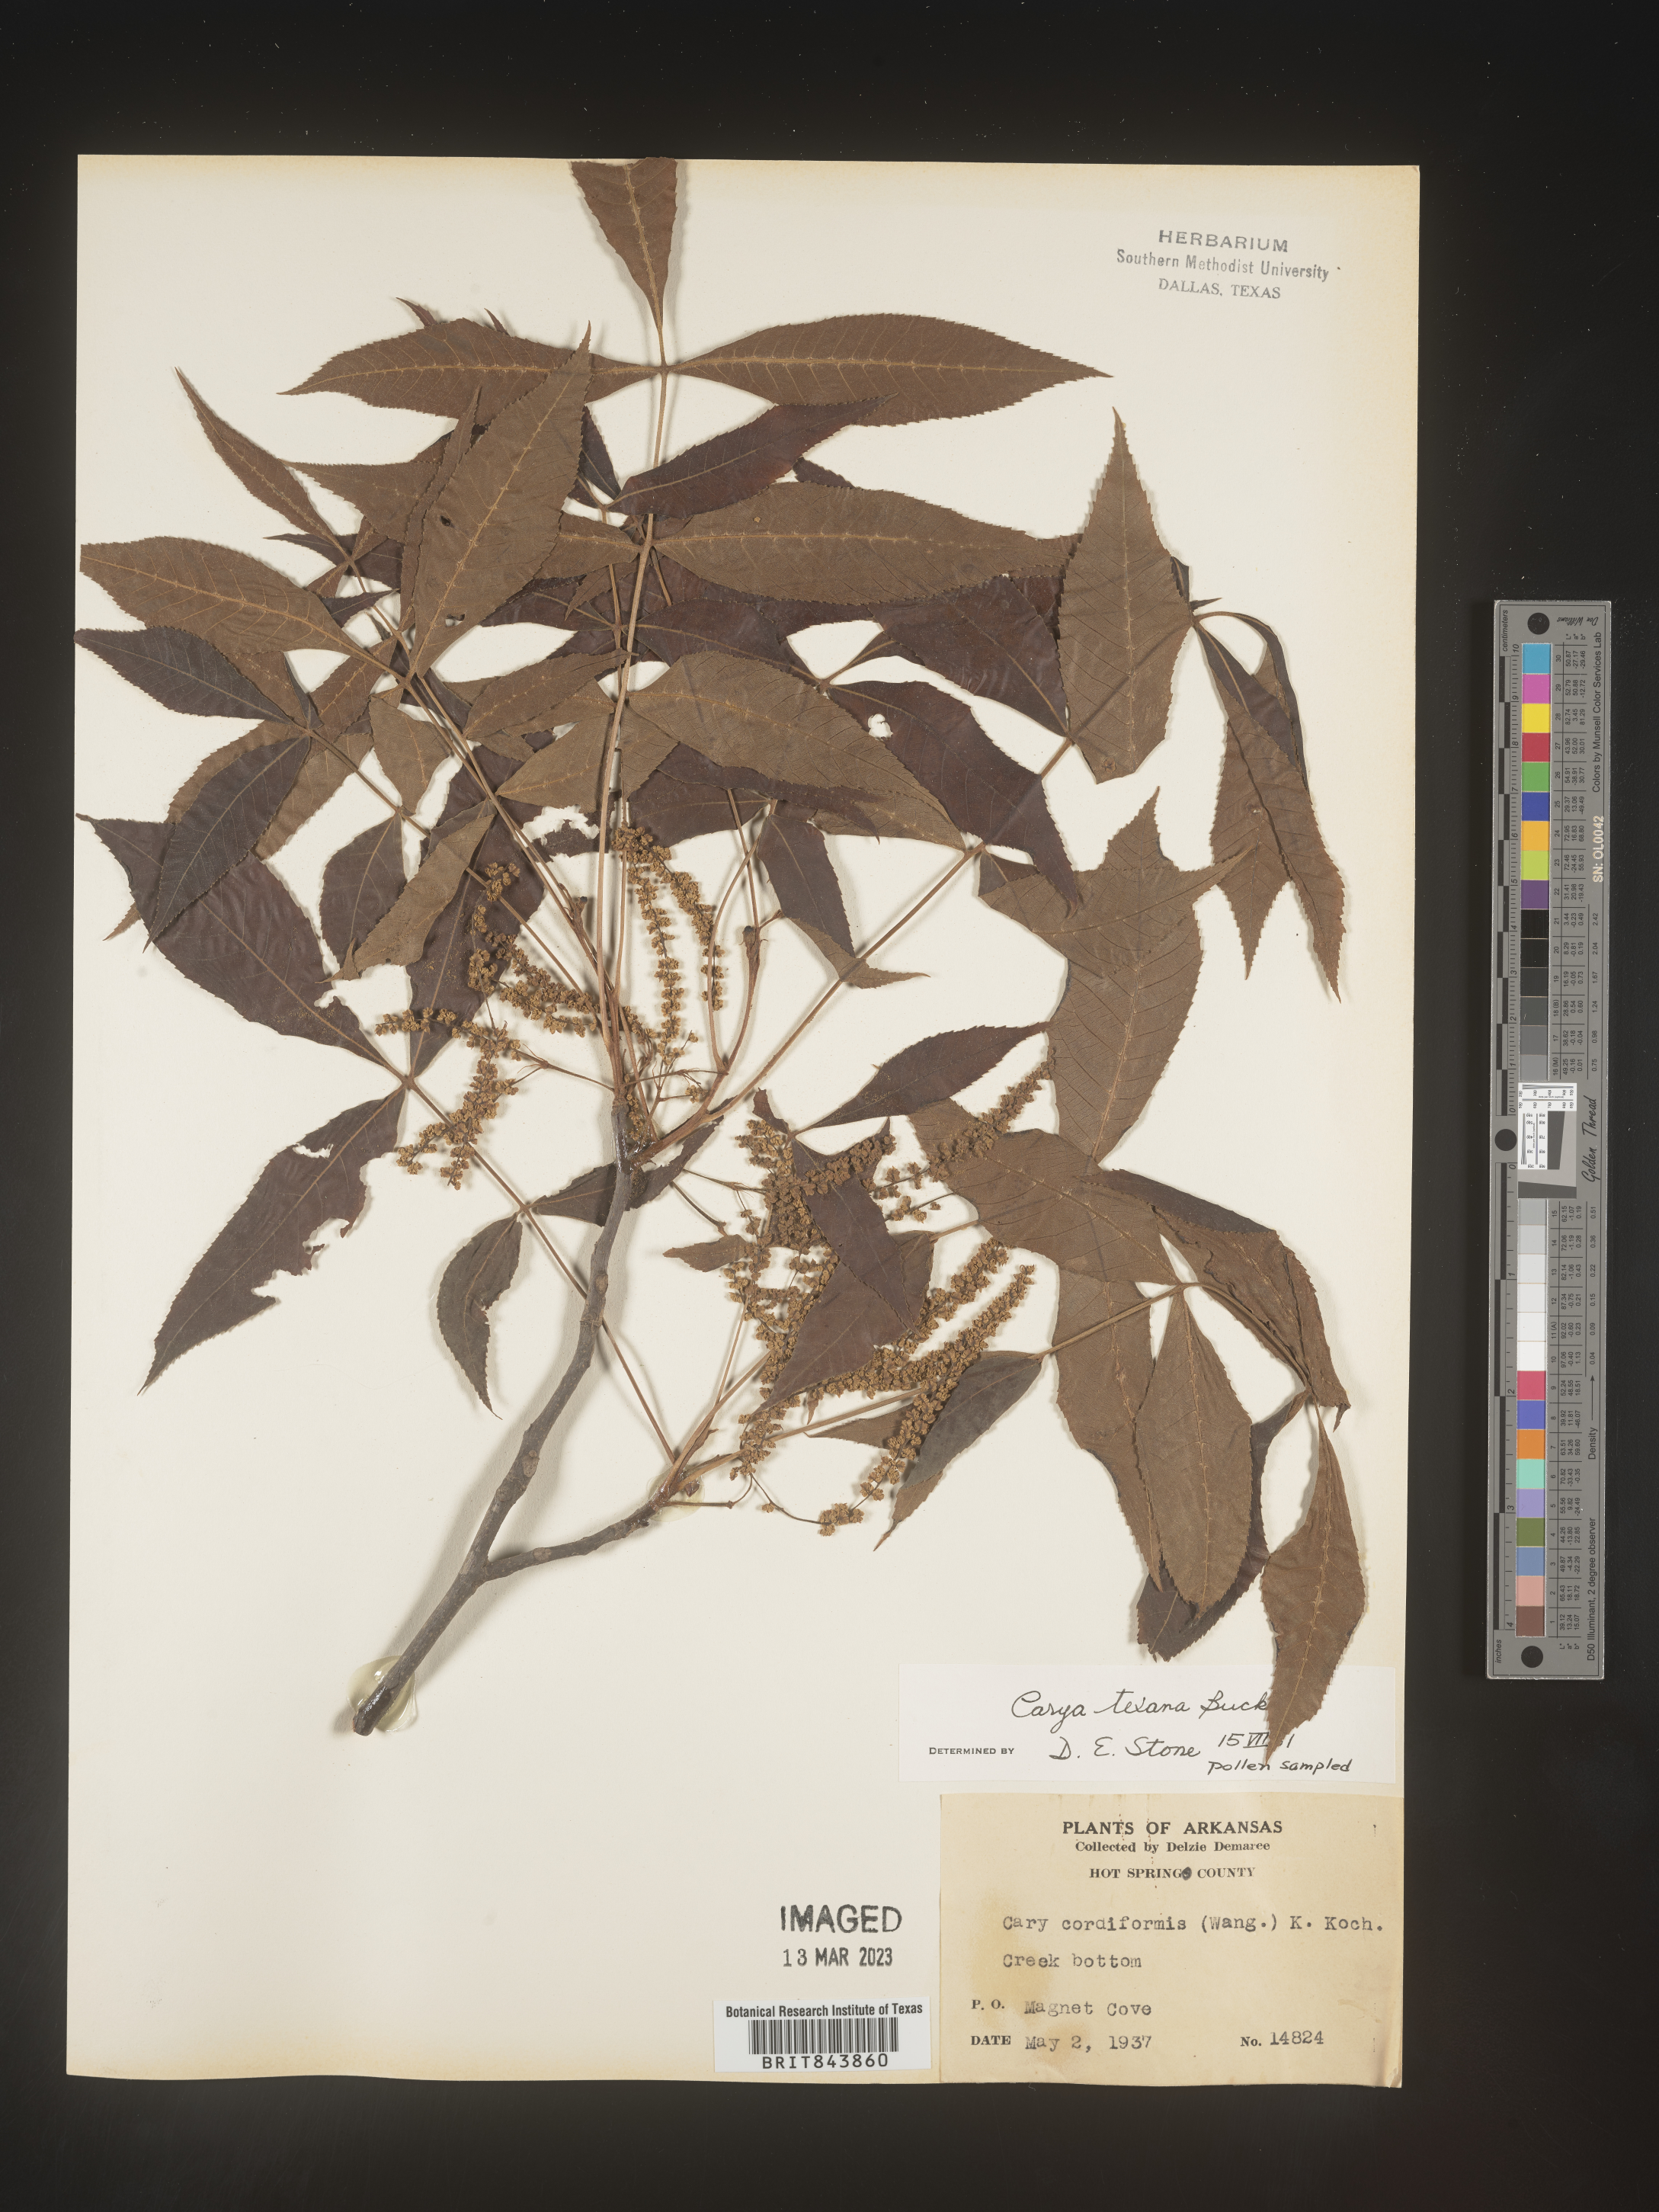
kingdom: Plantae
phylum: Tracheophyta
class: Magnoliopsida
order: Fagales
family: Juglandaceae
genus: Carya
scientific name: Carya texana
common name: Black hickory
